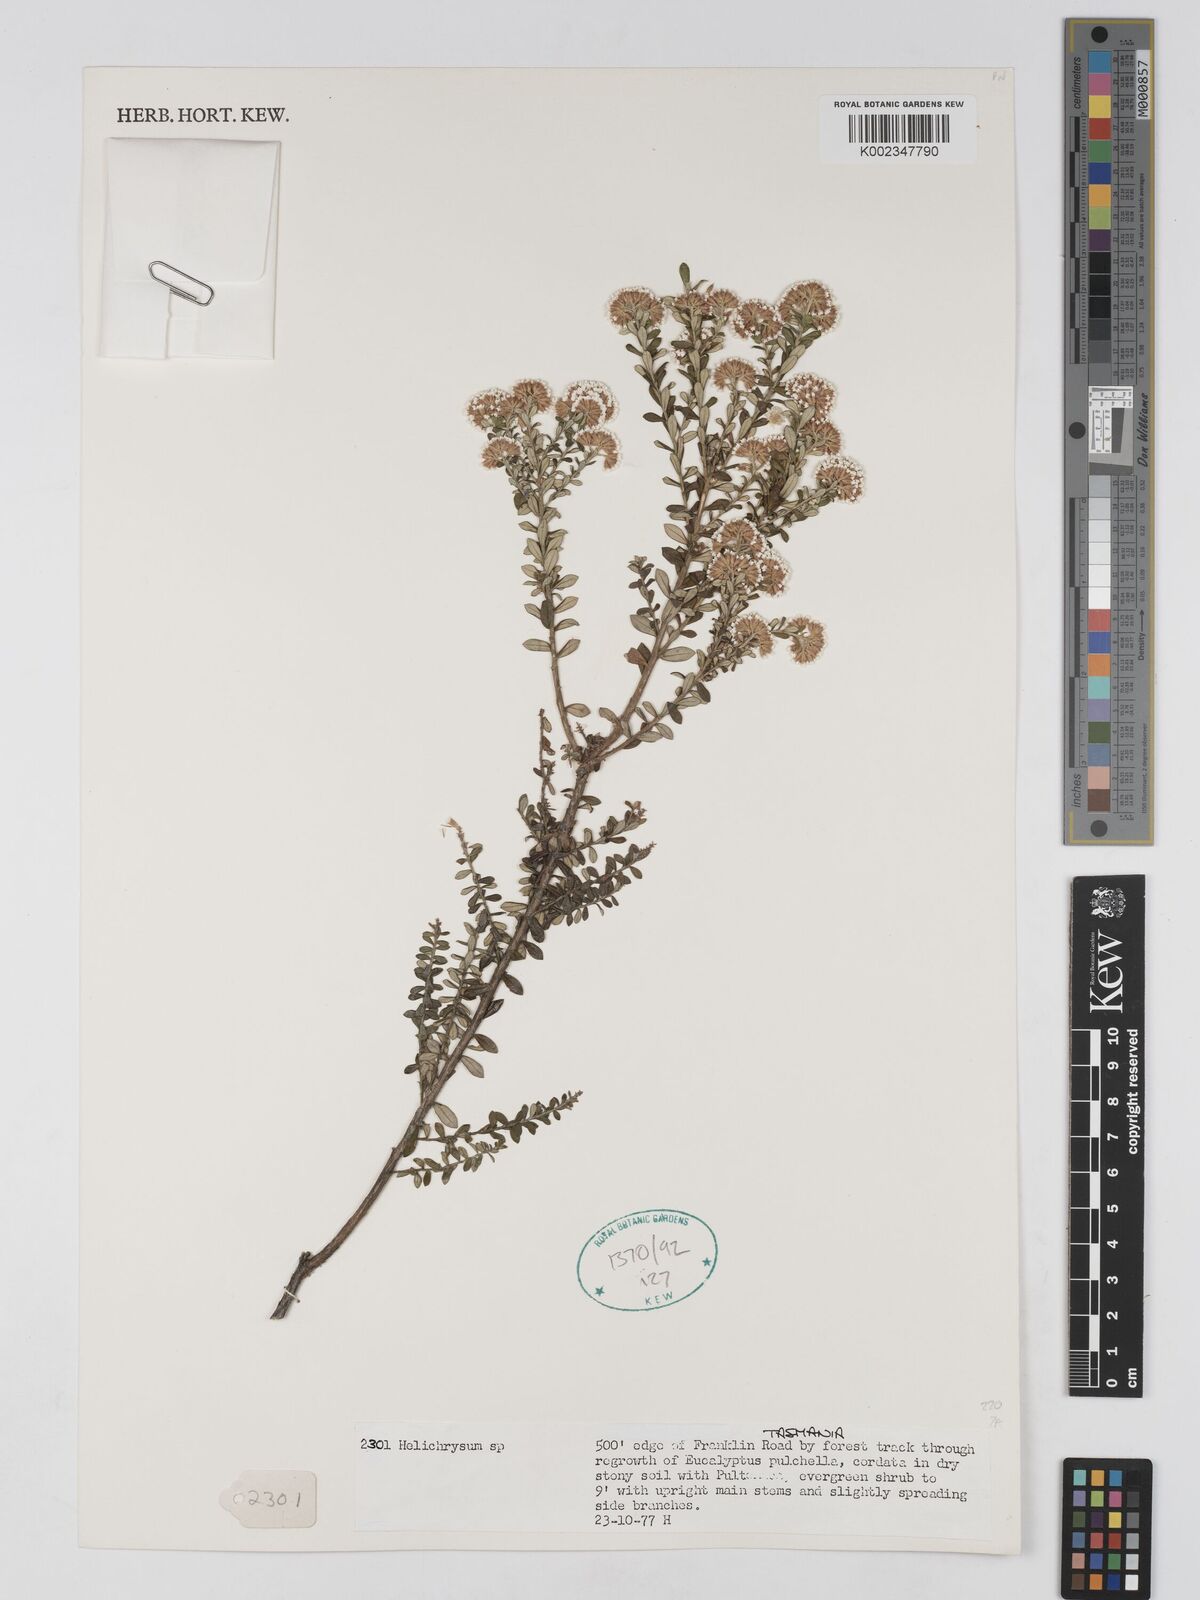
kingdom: Plantae
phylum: Tracheophyta
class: Magnoliopsida
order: Asterales
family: Asteraceae
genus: Ozothamnus
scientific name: Ozothamnus
